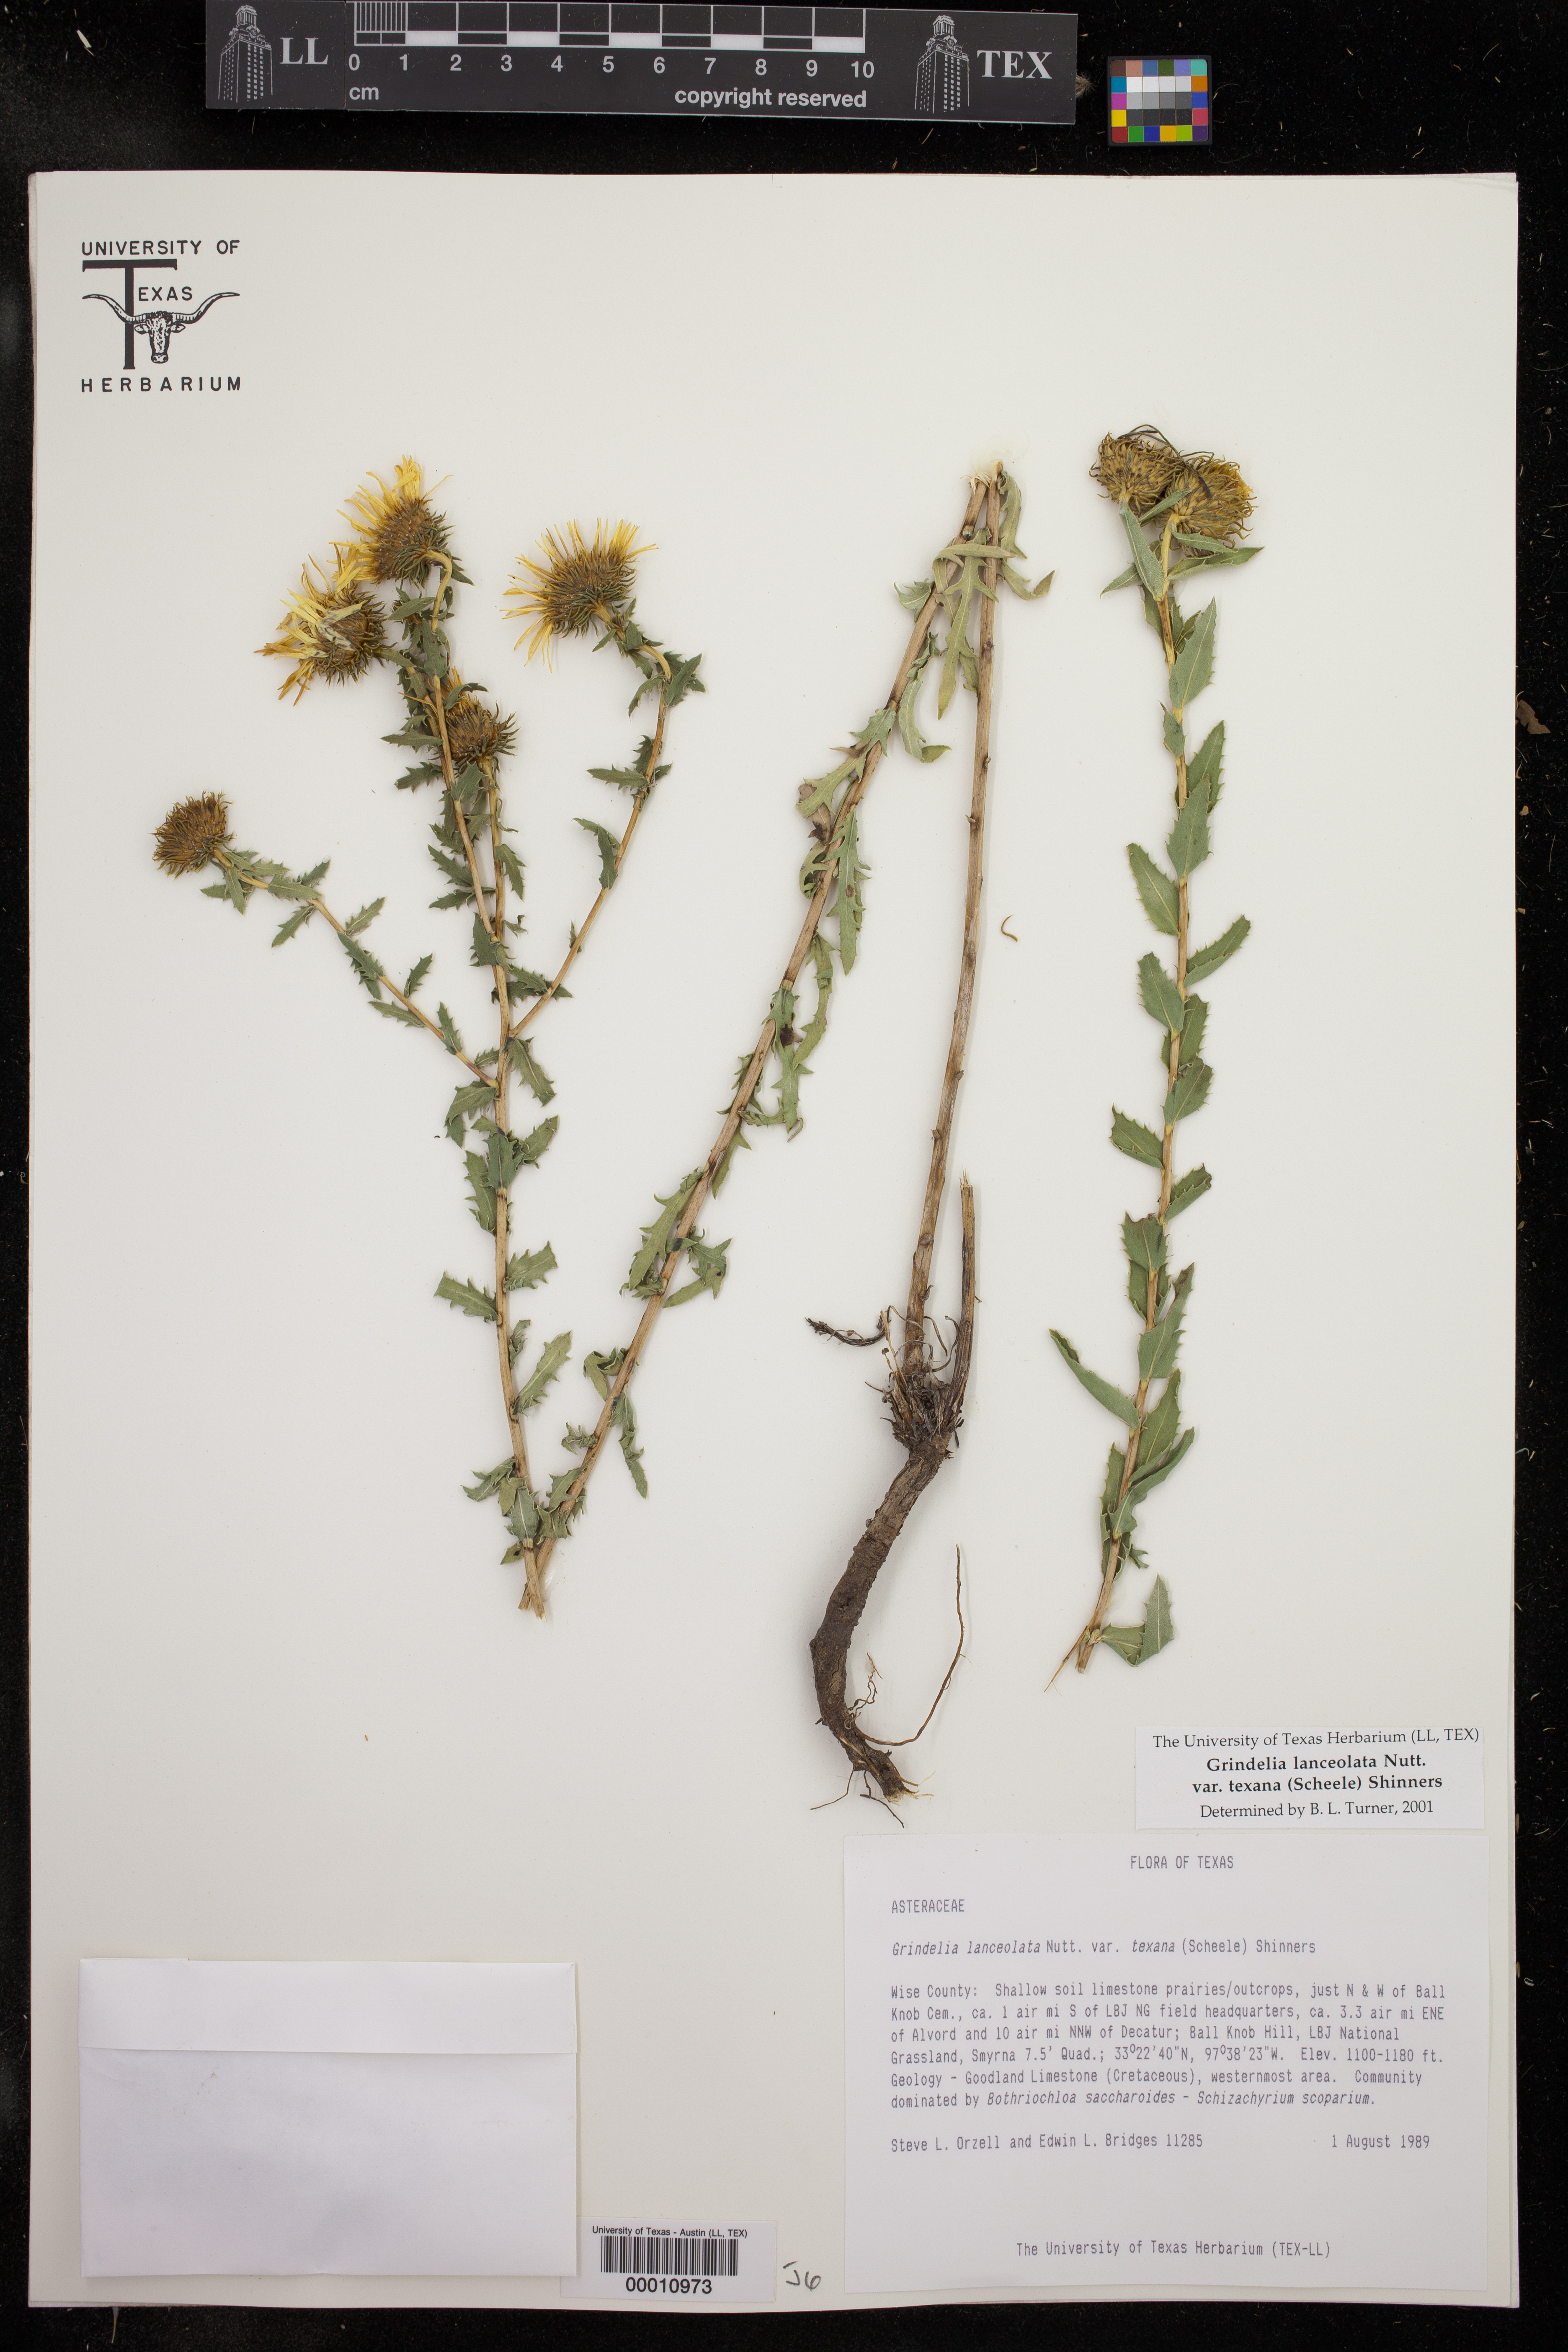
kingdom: Plantae
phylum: Tracheophyta
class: Magnoliopsida
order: Asterales
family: Asteraceae
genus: Grindelia
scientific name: Grindelia texana
